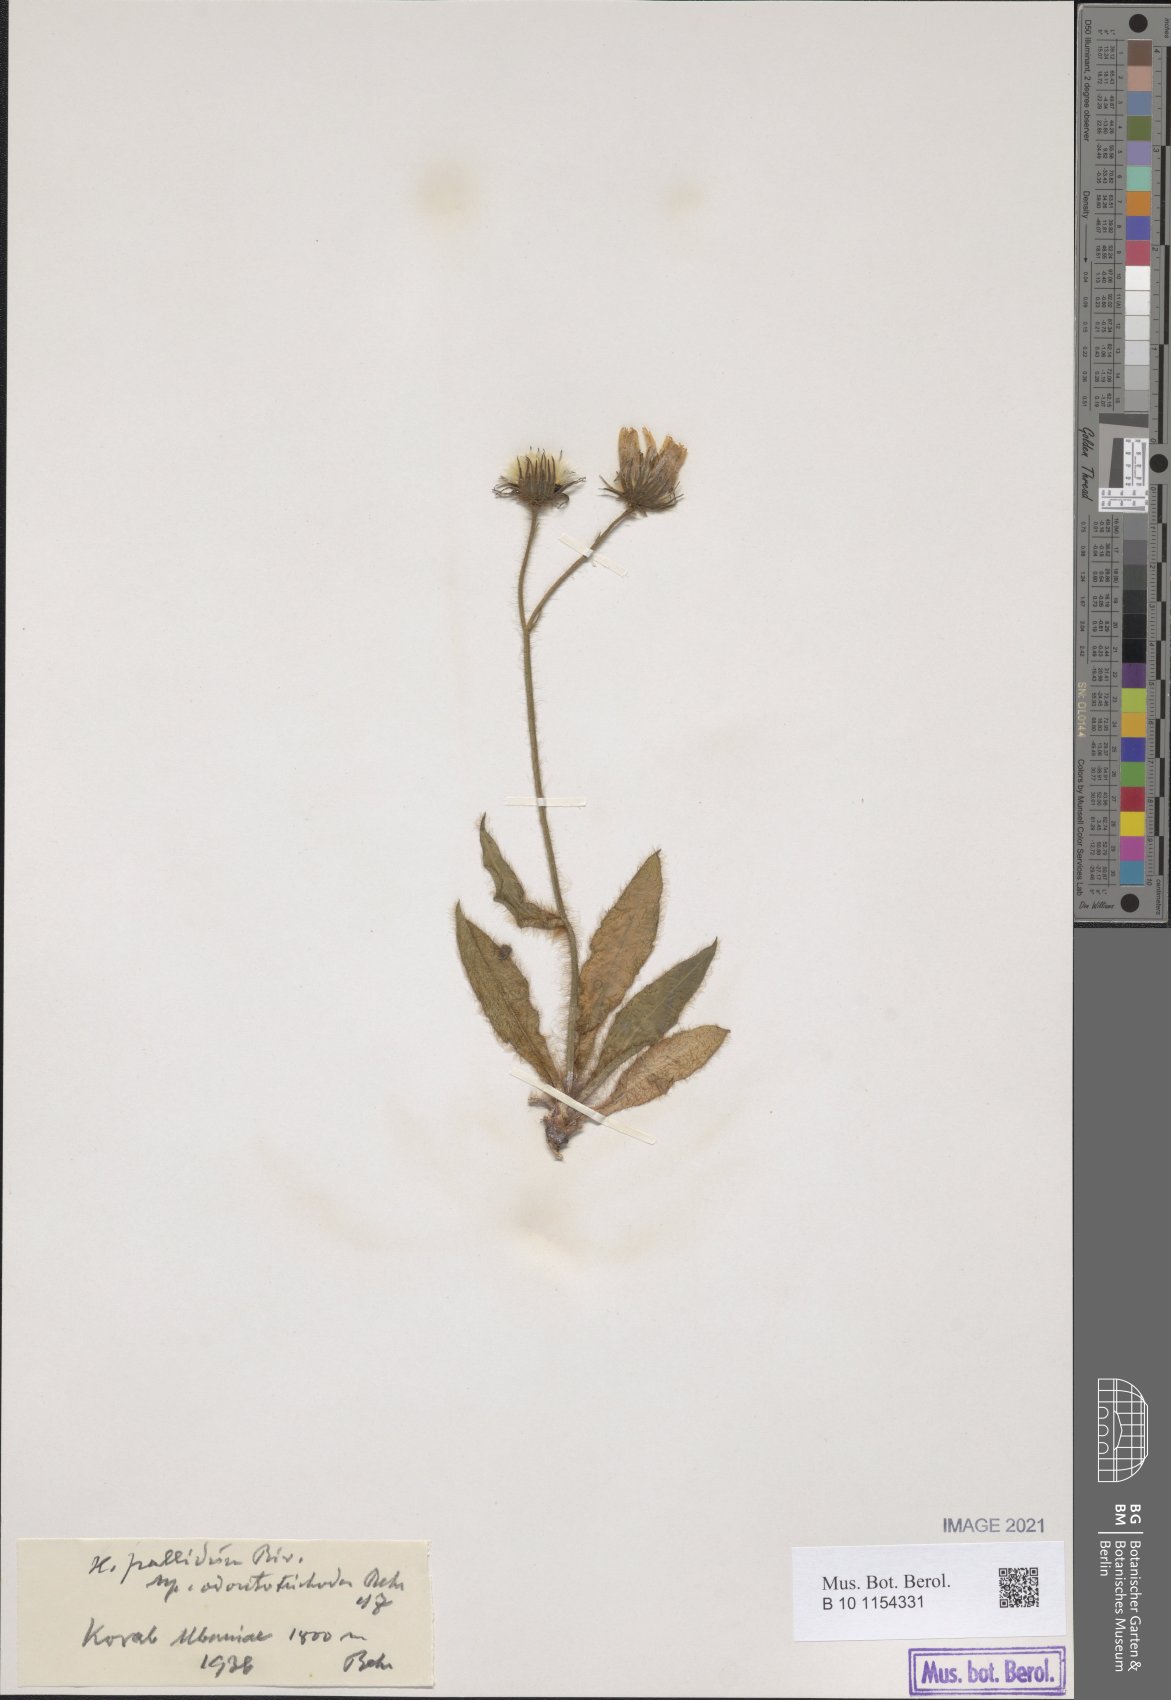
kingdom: Plantae
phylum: Tracheophyta
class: Magnoliopsida
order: Asterales
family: Asteraceae
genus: Hieracium
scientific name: Hieracium schmidtii
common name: Schmidt's hawkweed
